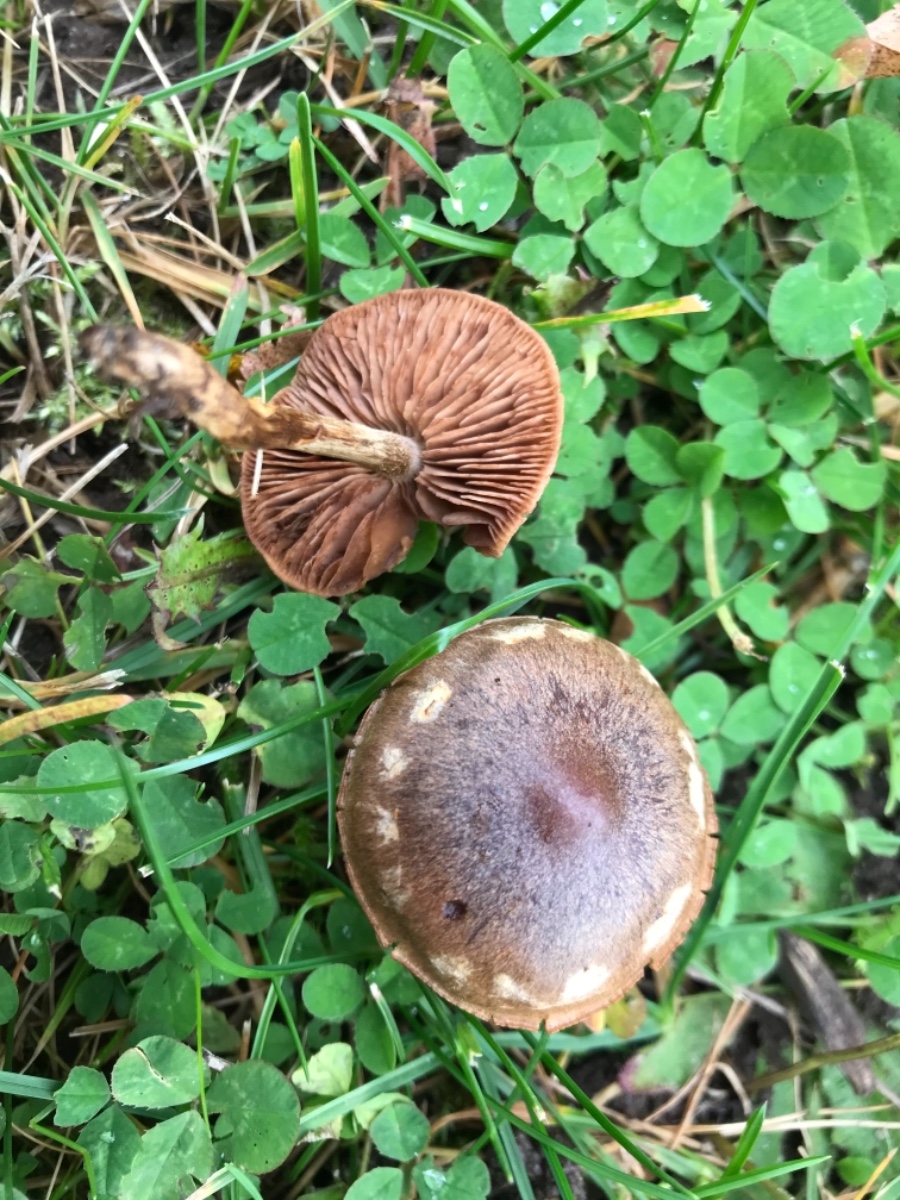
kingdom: Fungi
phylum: Basidiomycota
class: Agaricomycetes
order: Agaricales
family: Cortinariaceae
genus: Cortinarius
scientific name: Cortinarius
